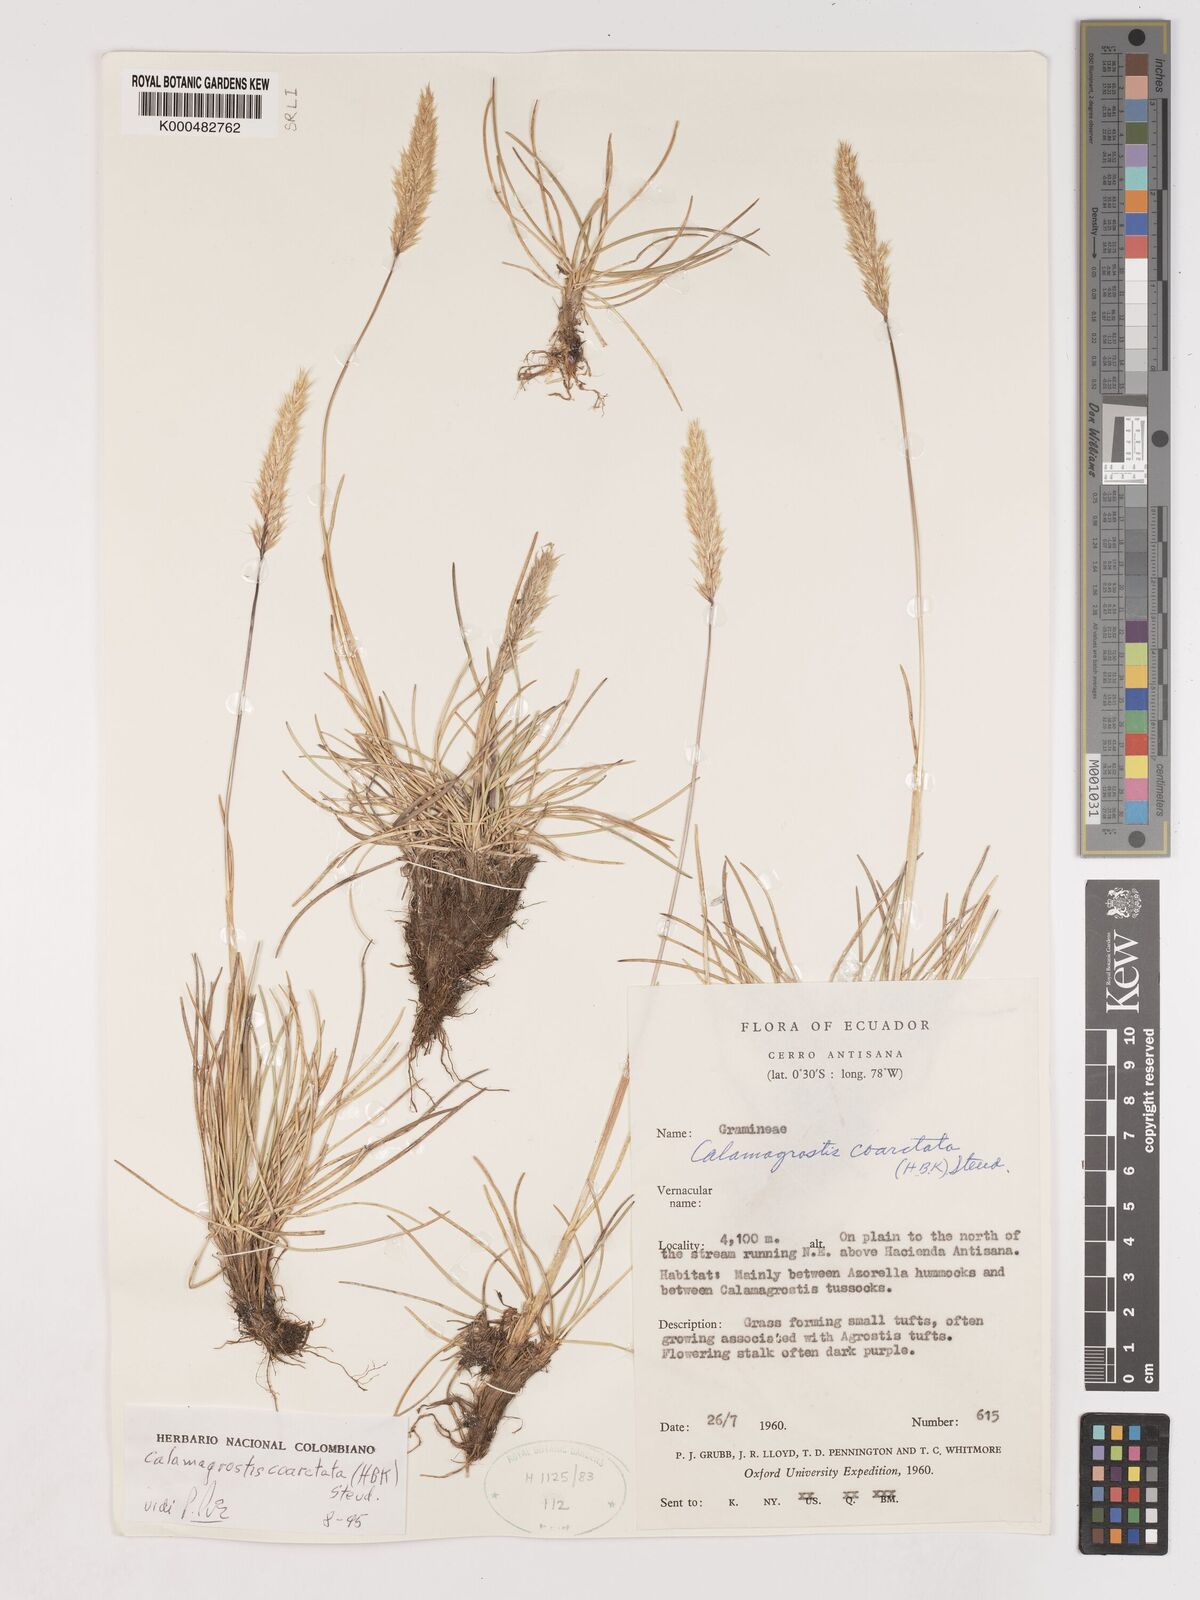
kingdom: Plantae
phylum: Tracheophyta
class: Liliopsida
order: Poales
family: Poaceae
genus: Cinnagrostis
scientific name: Cinnagrostis coarctata
